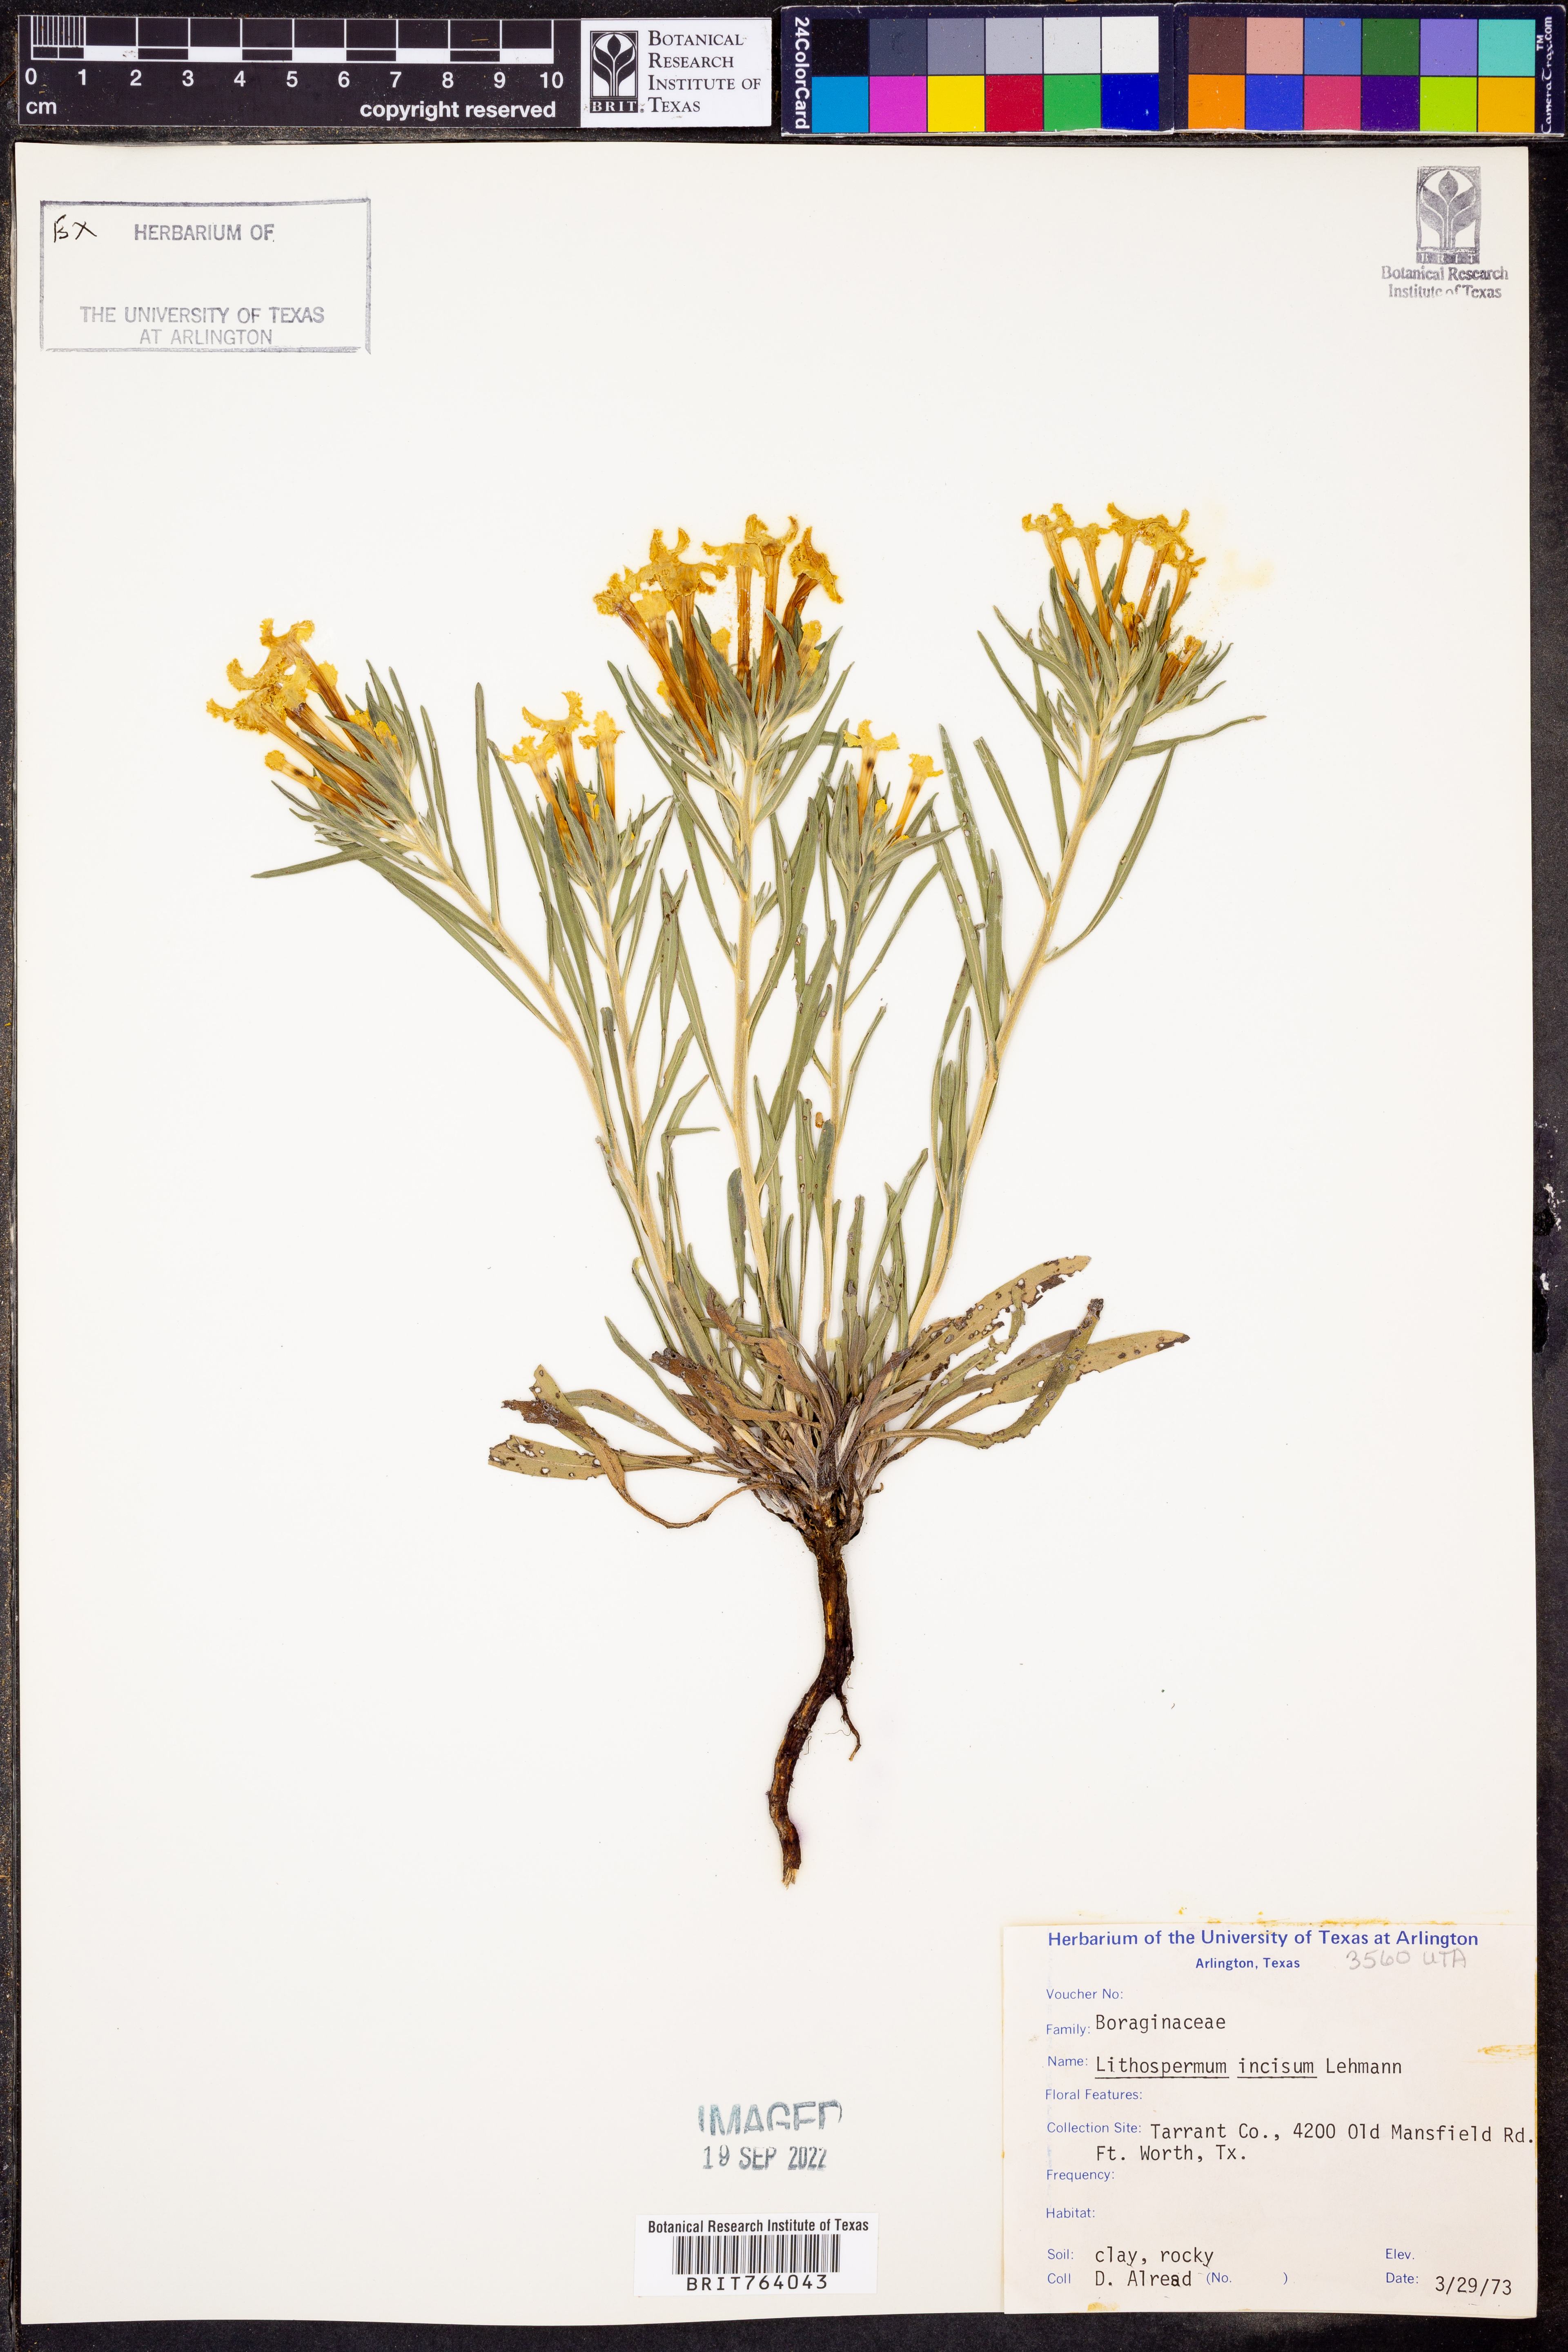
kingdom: Plantae
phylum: Tracheophyta
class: Magnoliopsida
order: Boraginales
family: Boraginaceae
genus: Lithospermum
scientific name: Lithospermum incisum
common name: Fringed gromwell
